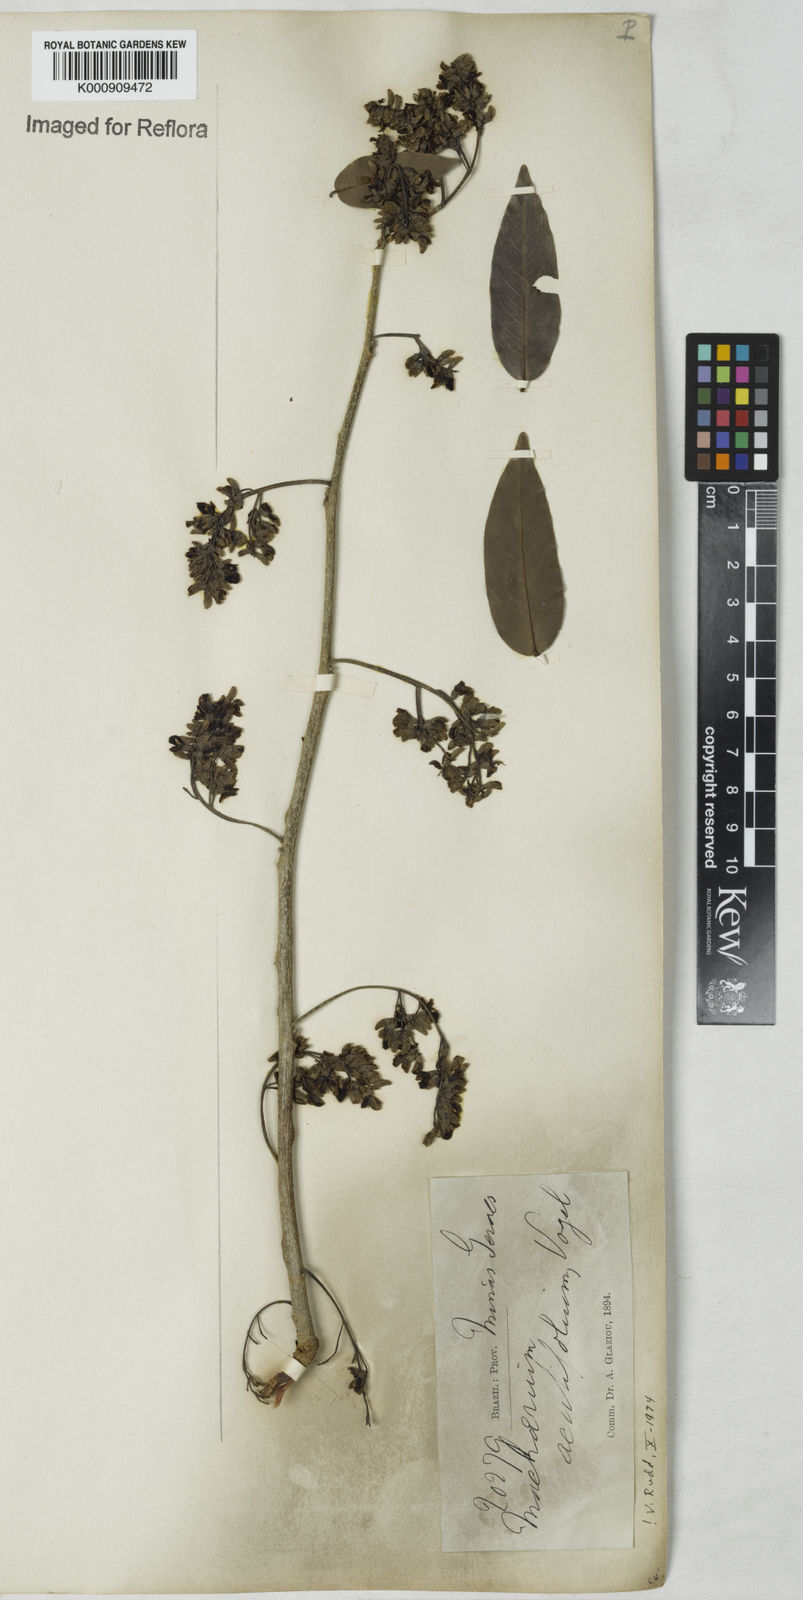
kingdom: Plantae
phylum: Tracheophyta
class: Magnoliopsida
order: Fabales
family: Fabaceae
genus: Machaerium
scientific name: Machaerium acutifolium
